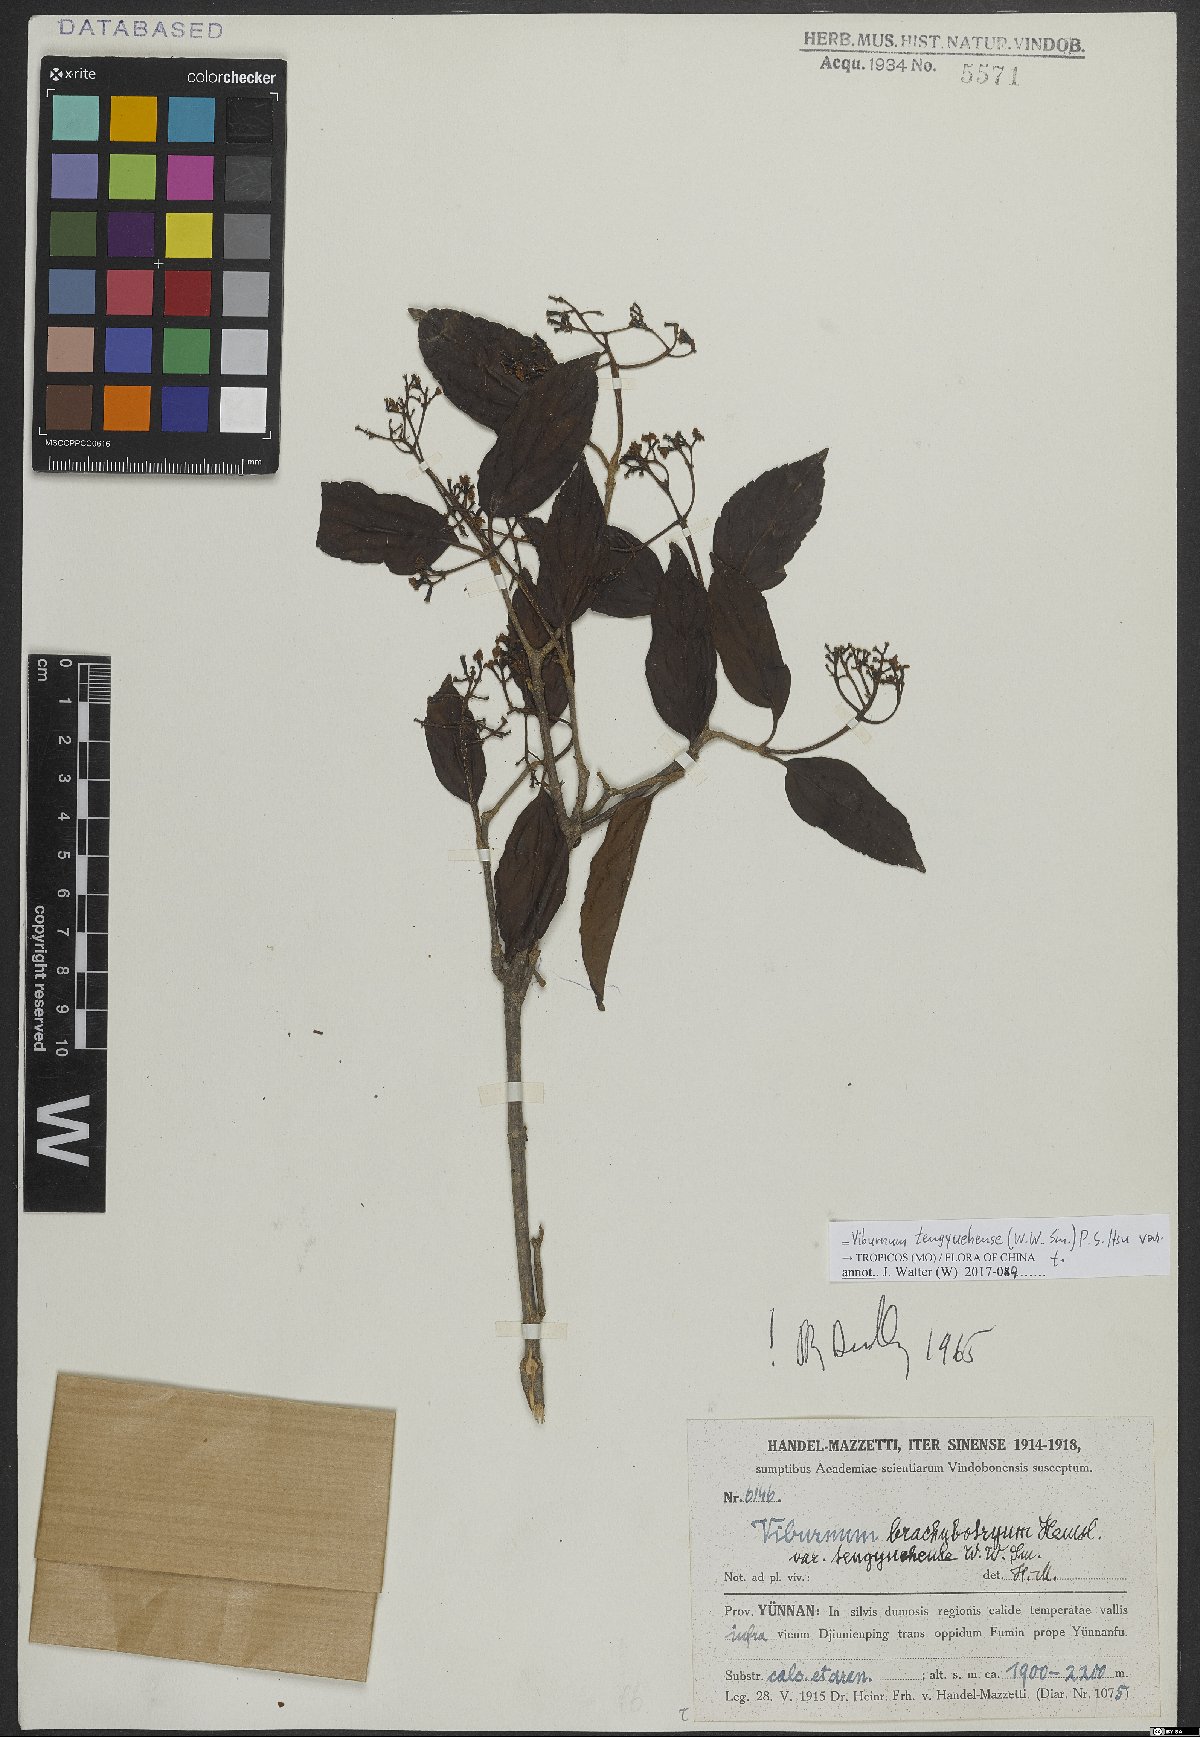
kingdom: Plantae
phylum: Tracheophyta
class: Magnoliopsida
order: Dipsacales
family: Viburnaceae
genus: Viburnum
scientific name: Viburnum tengyuehense
